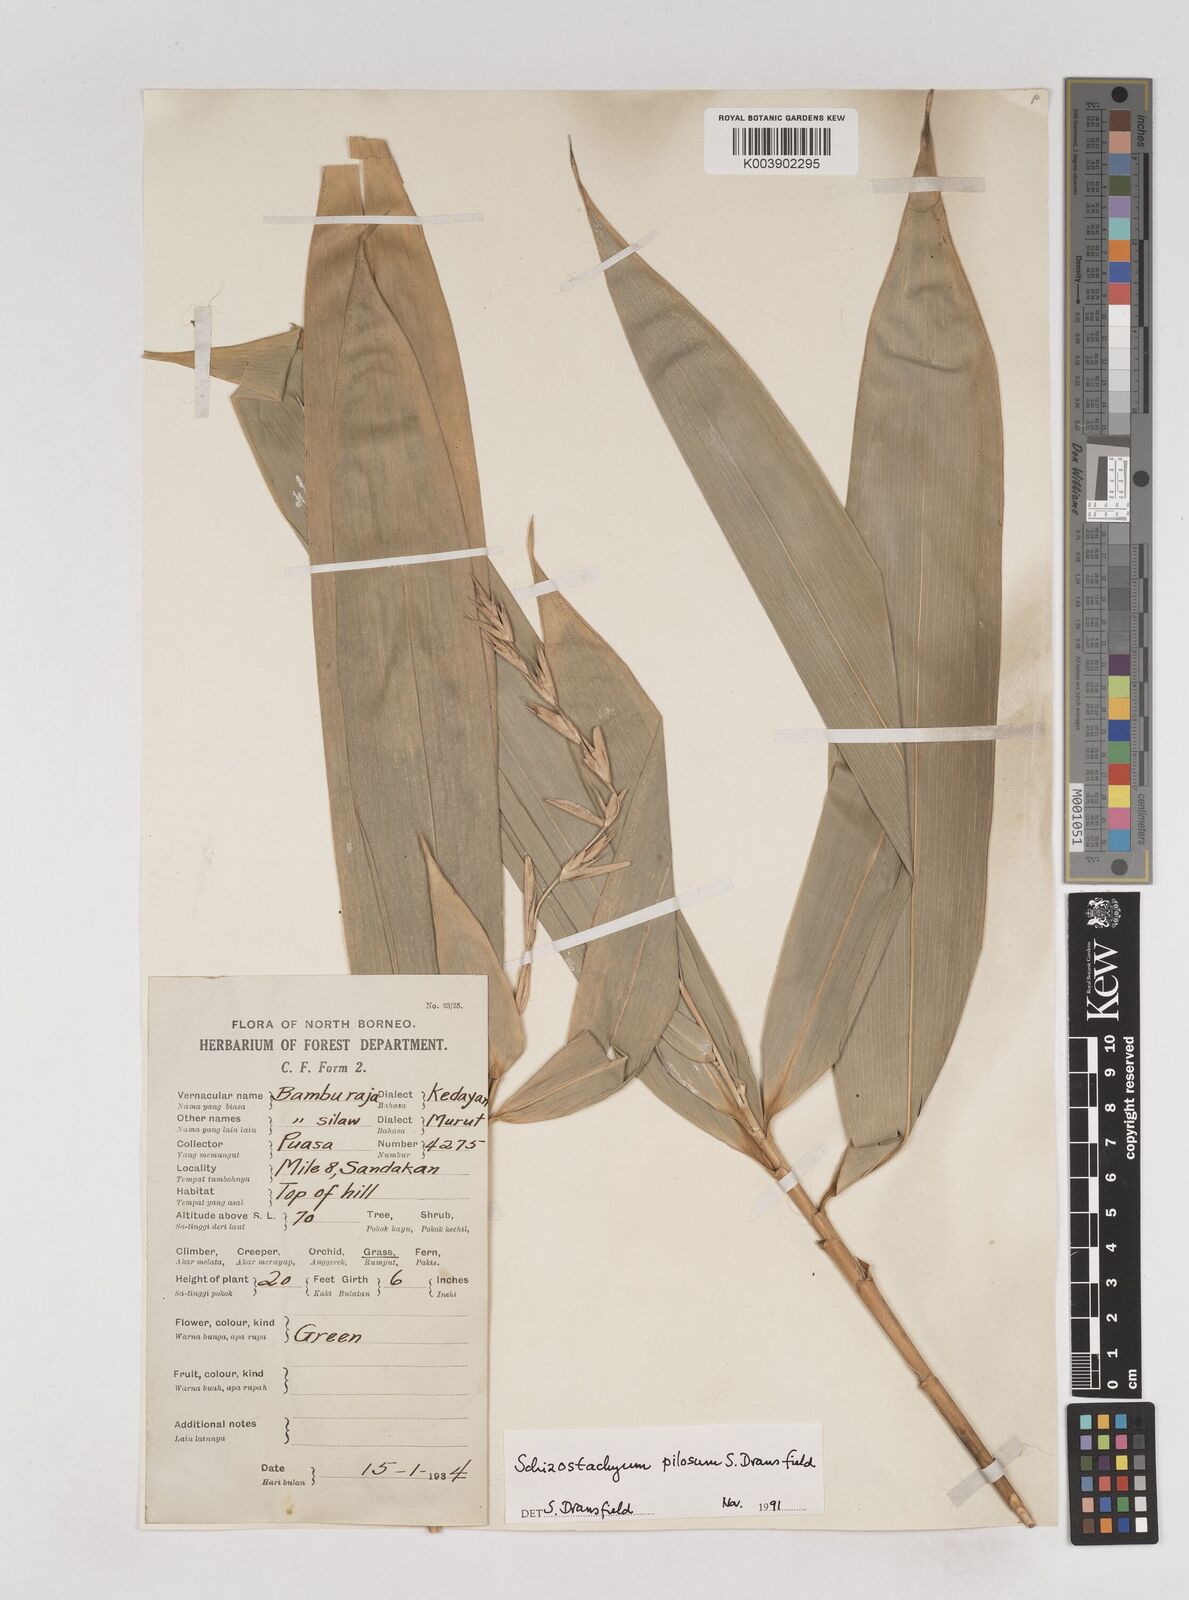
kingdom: Plantae
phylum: Tracheophyta
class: Liliopsida
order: Poales
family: Poaceae
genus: Schizostachyum
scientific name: Schizostachyum pilosum
